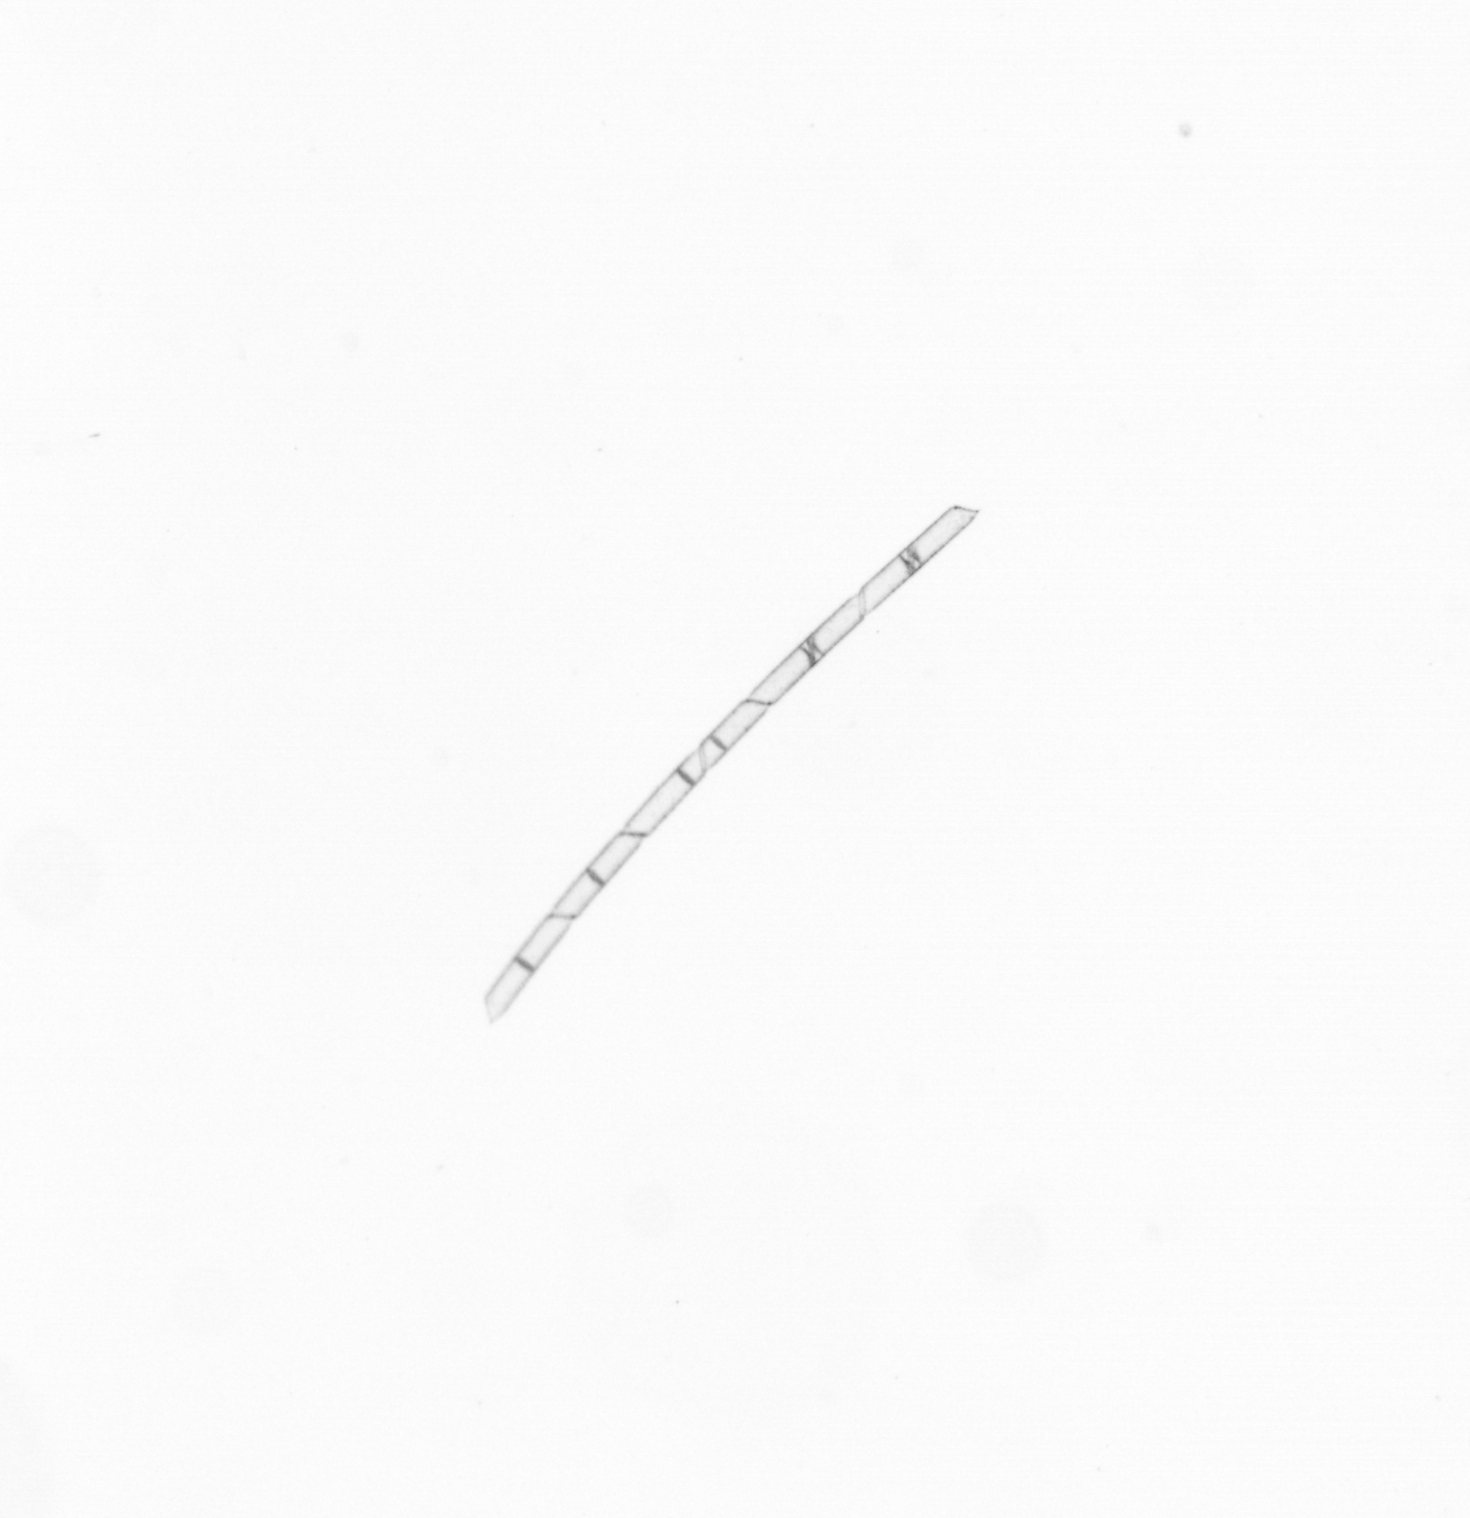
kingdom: Chromista
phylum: Ochrophyta
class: Bacillariophyceae
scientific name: Bacillariophyceae
